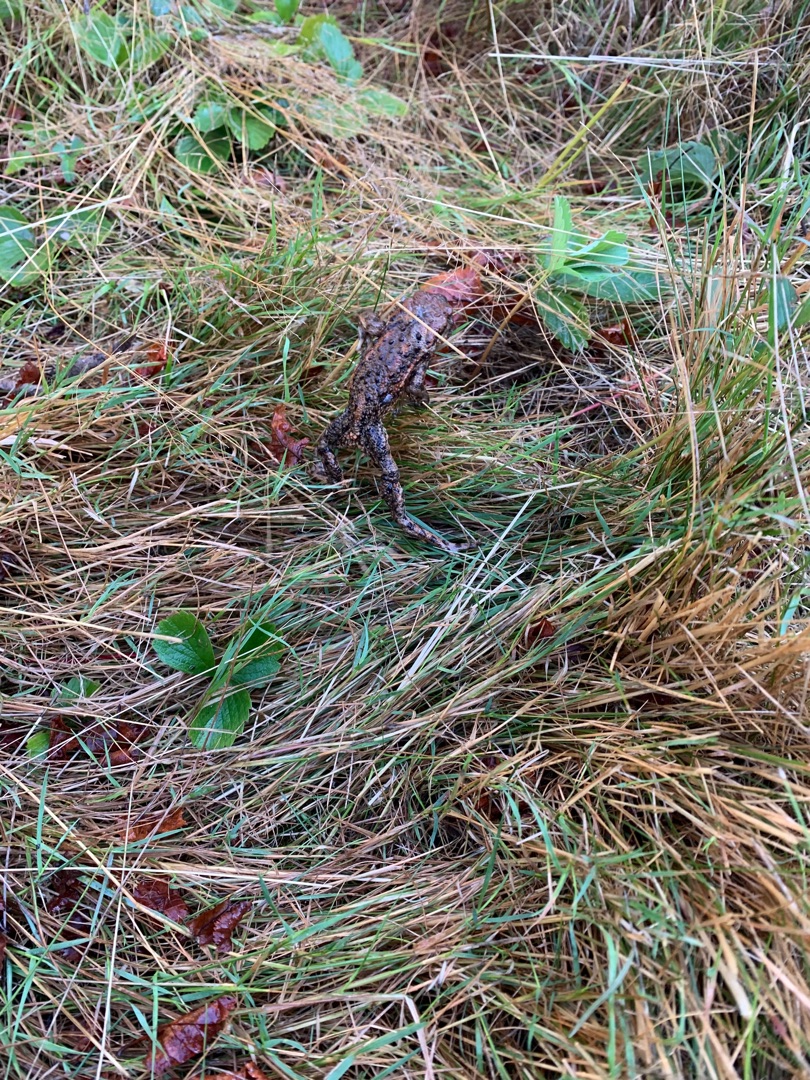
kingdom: Animalia
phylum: Chordata
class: Amphibia
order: Anura
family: Bufonidae
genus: Bufo
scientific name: Bufo bufo
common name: Skrubtudse
